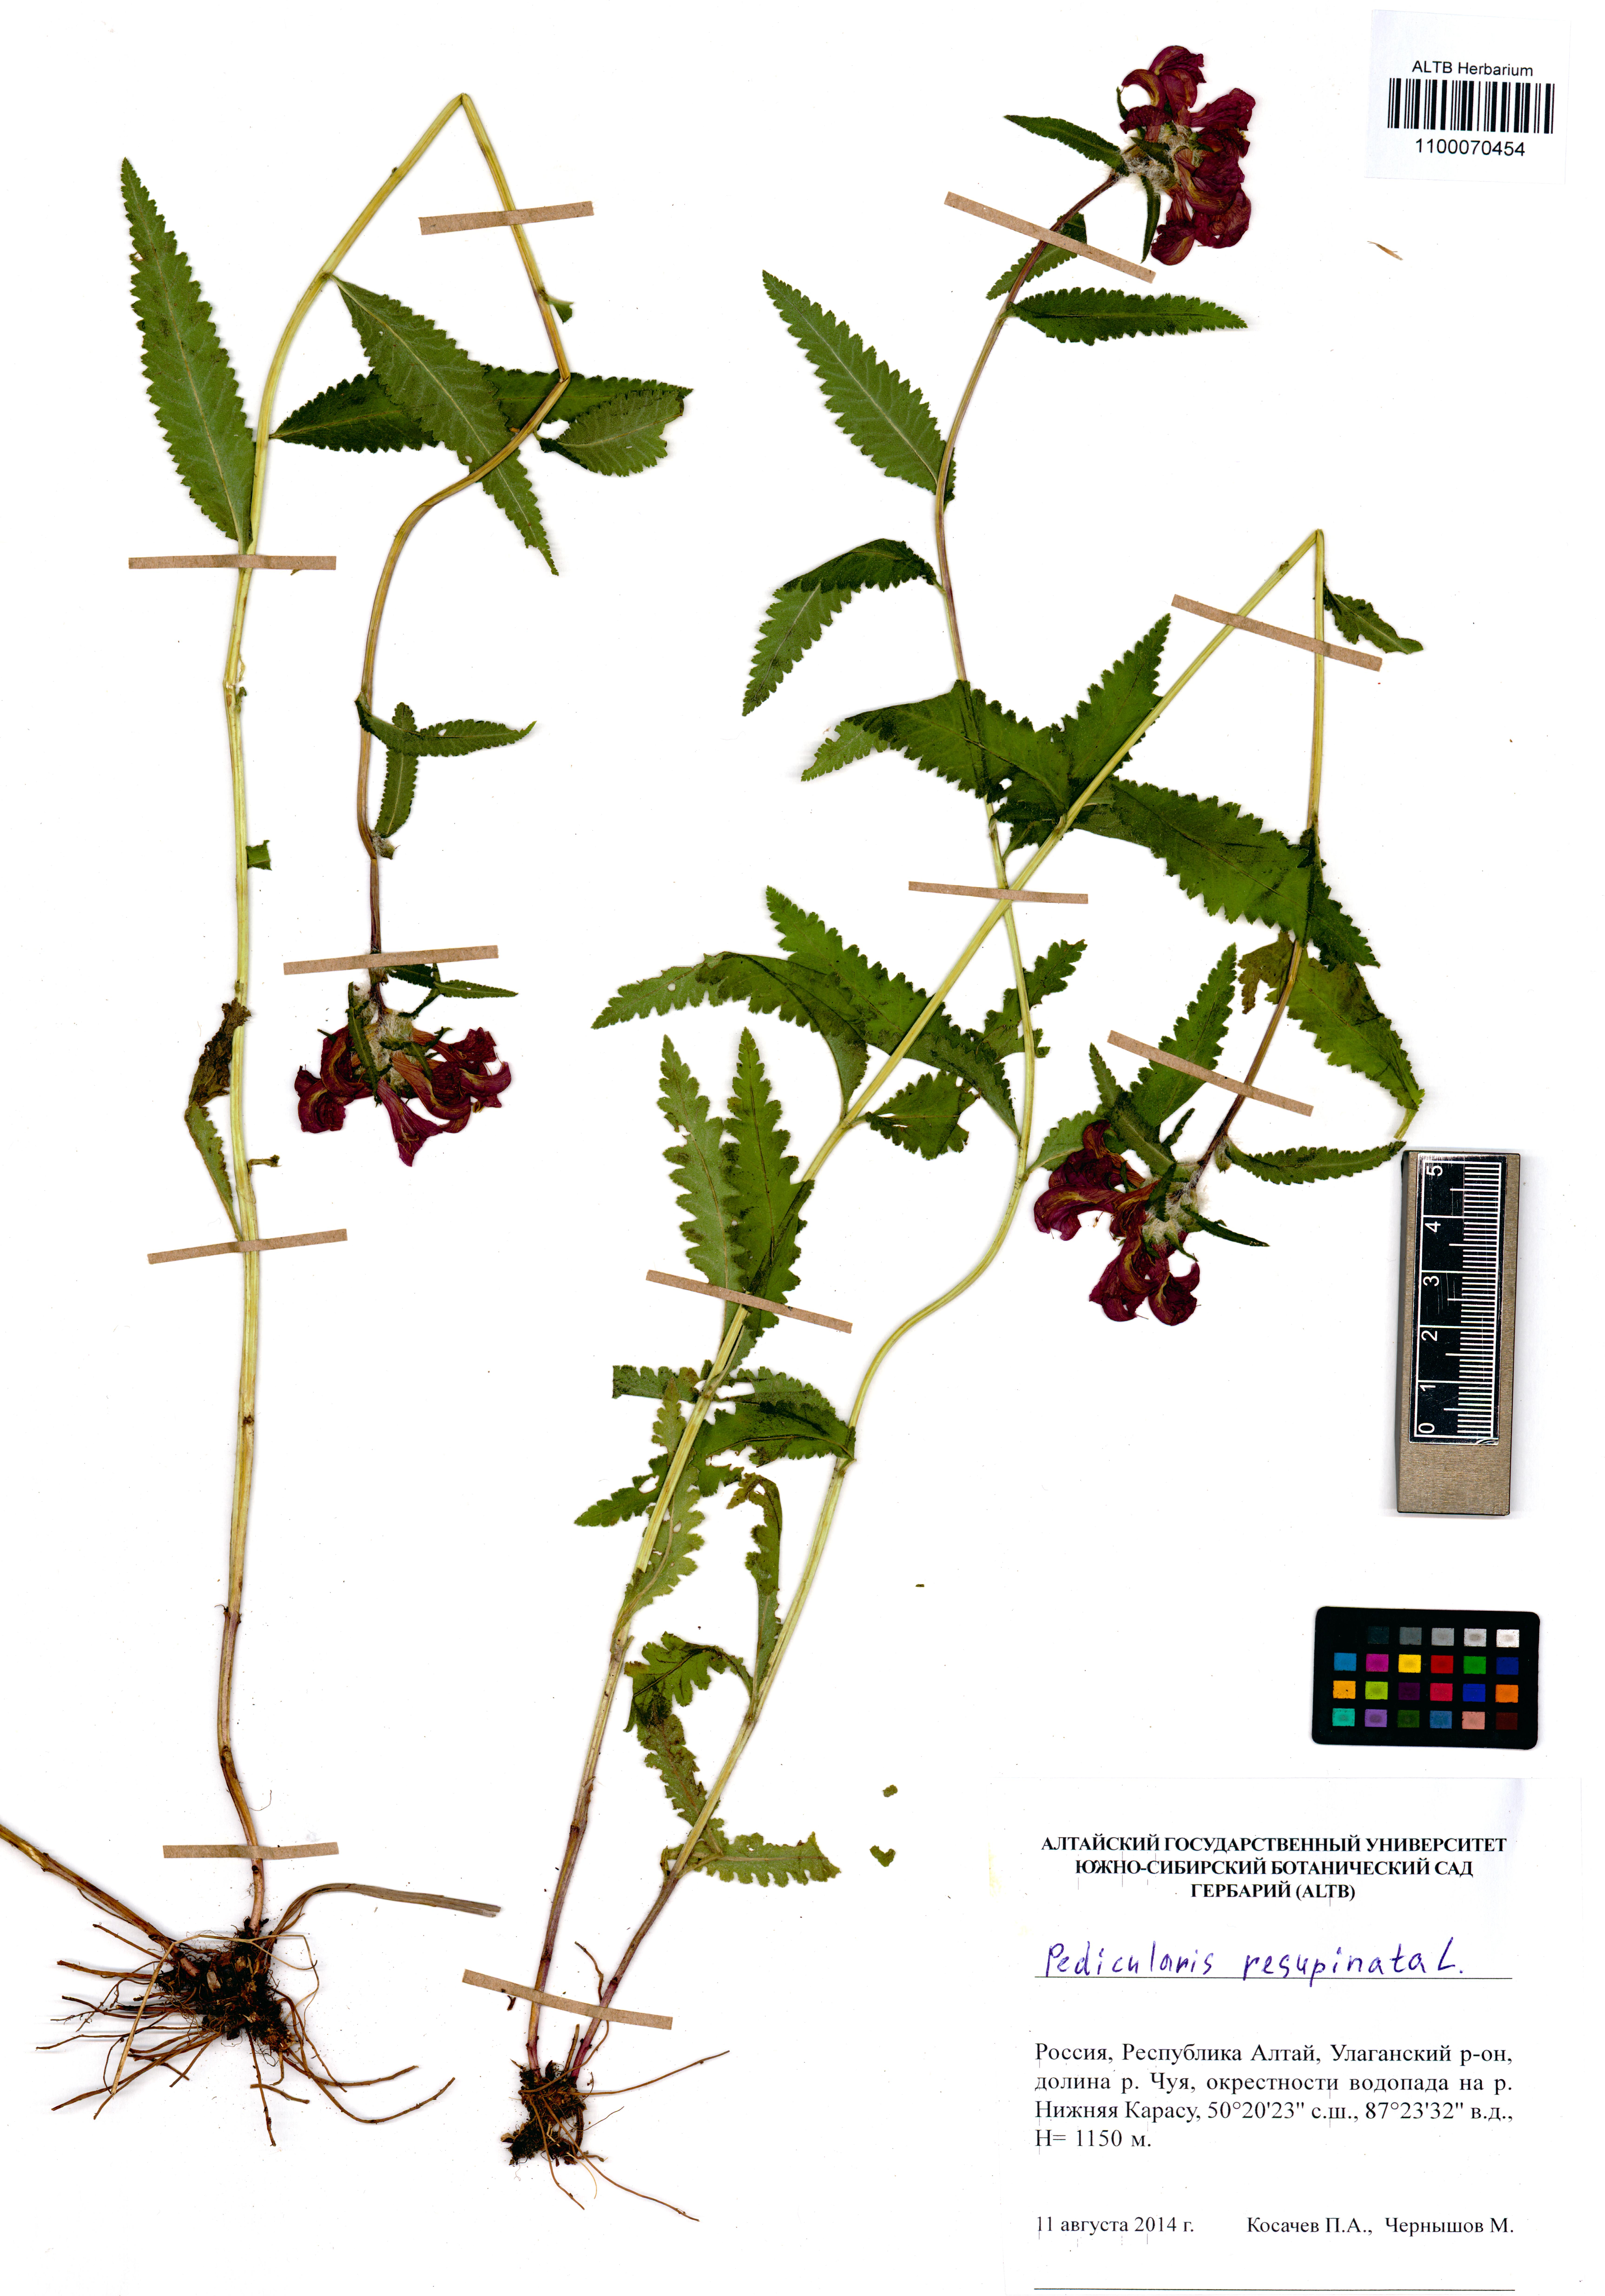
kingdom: Plantae
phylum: Tracheophyta
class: Magnoliopsida
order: Lamiales
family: Orobanchaceae
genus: Pedicularis
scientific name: Pedicularis resupinata
